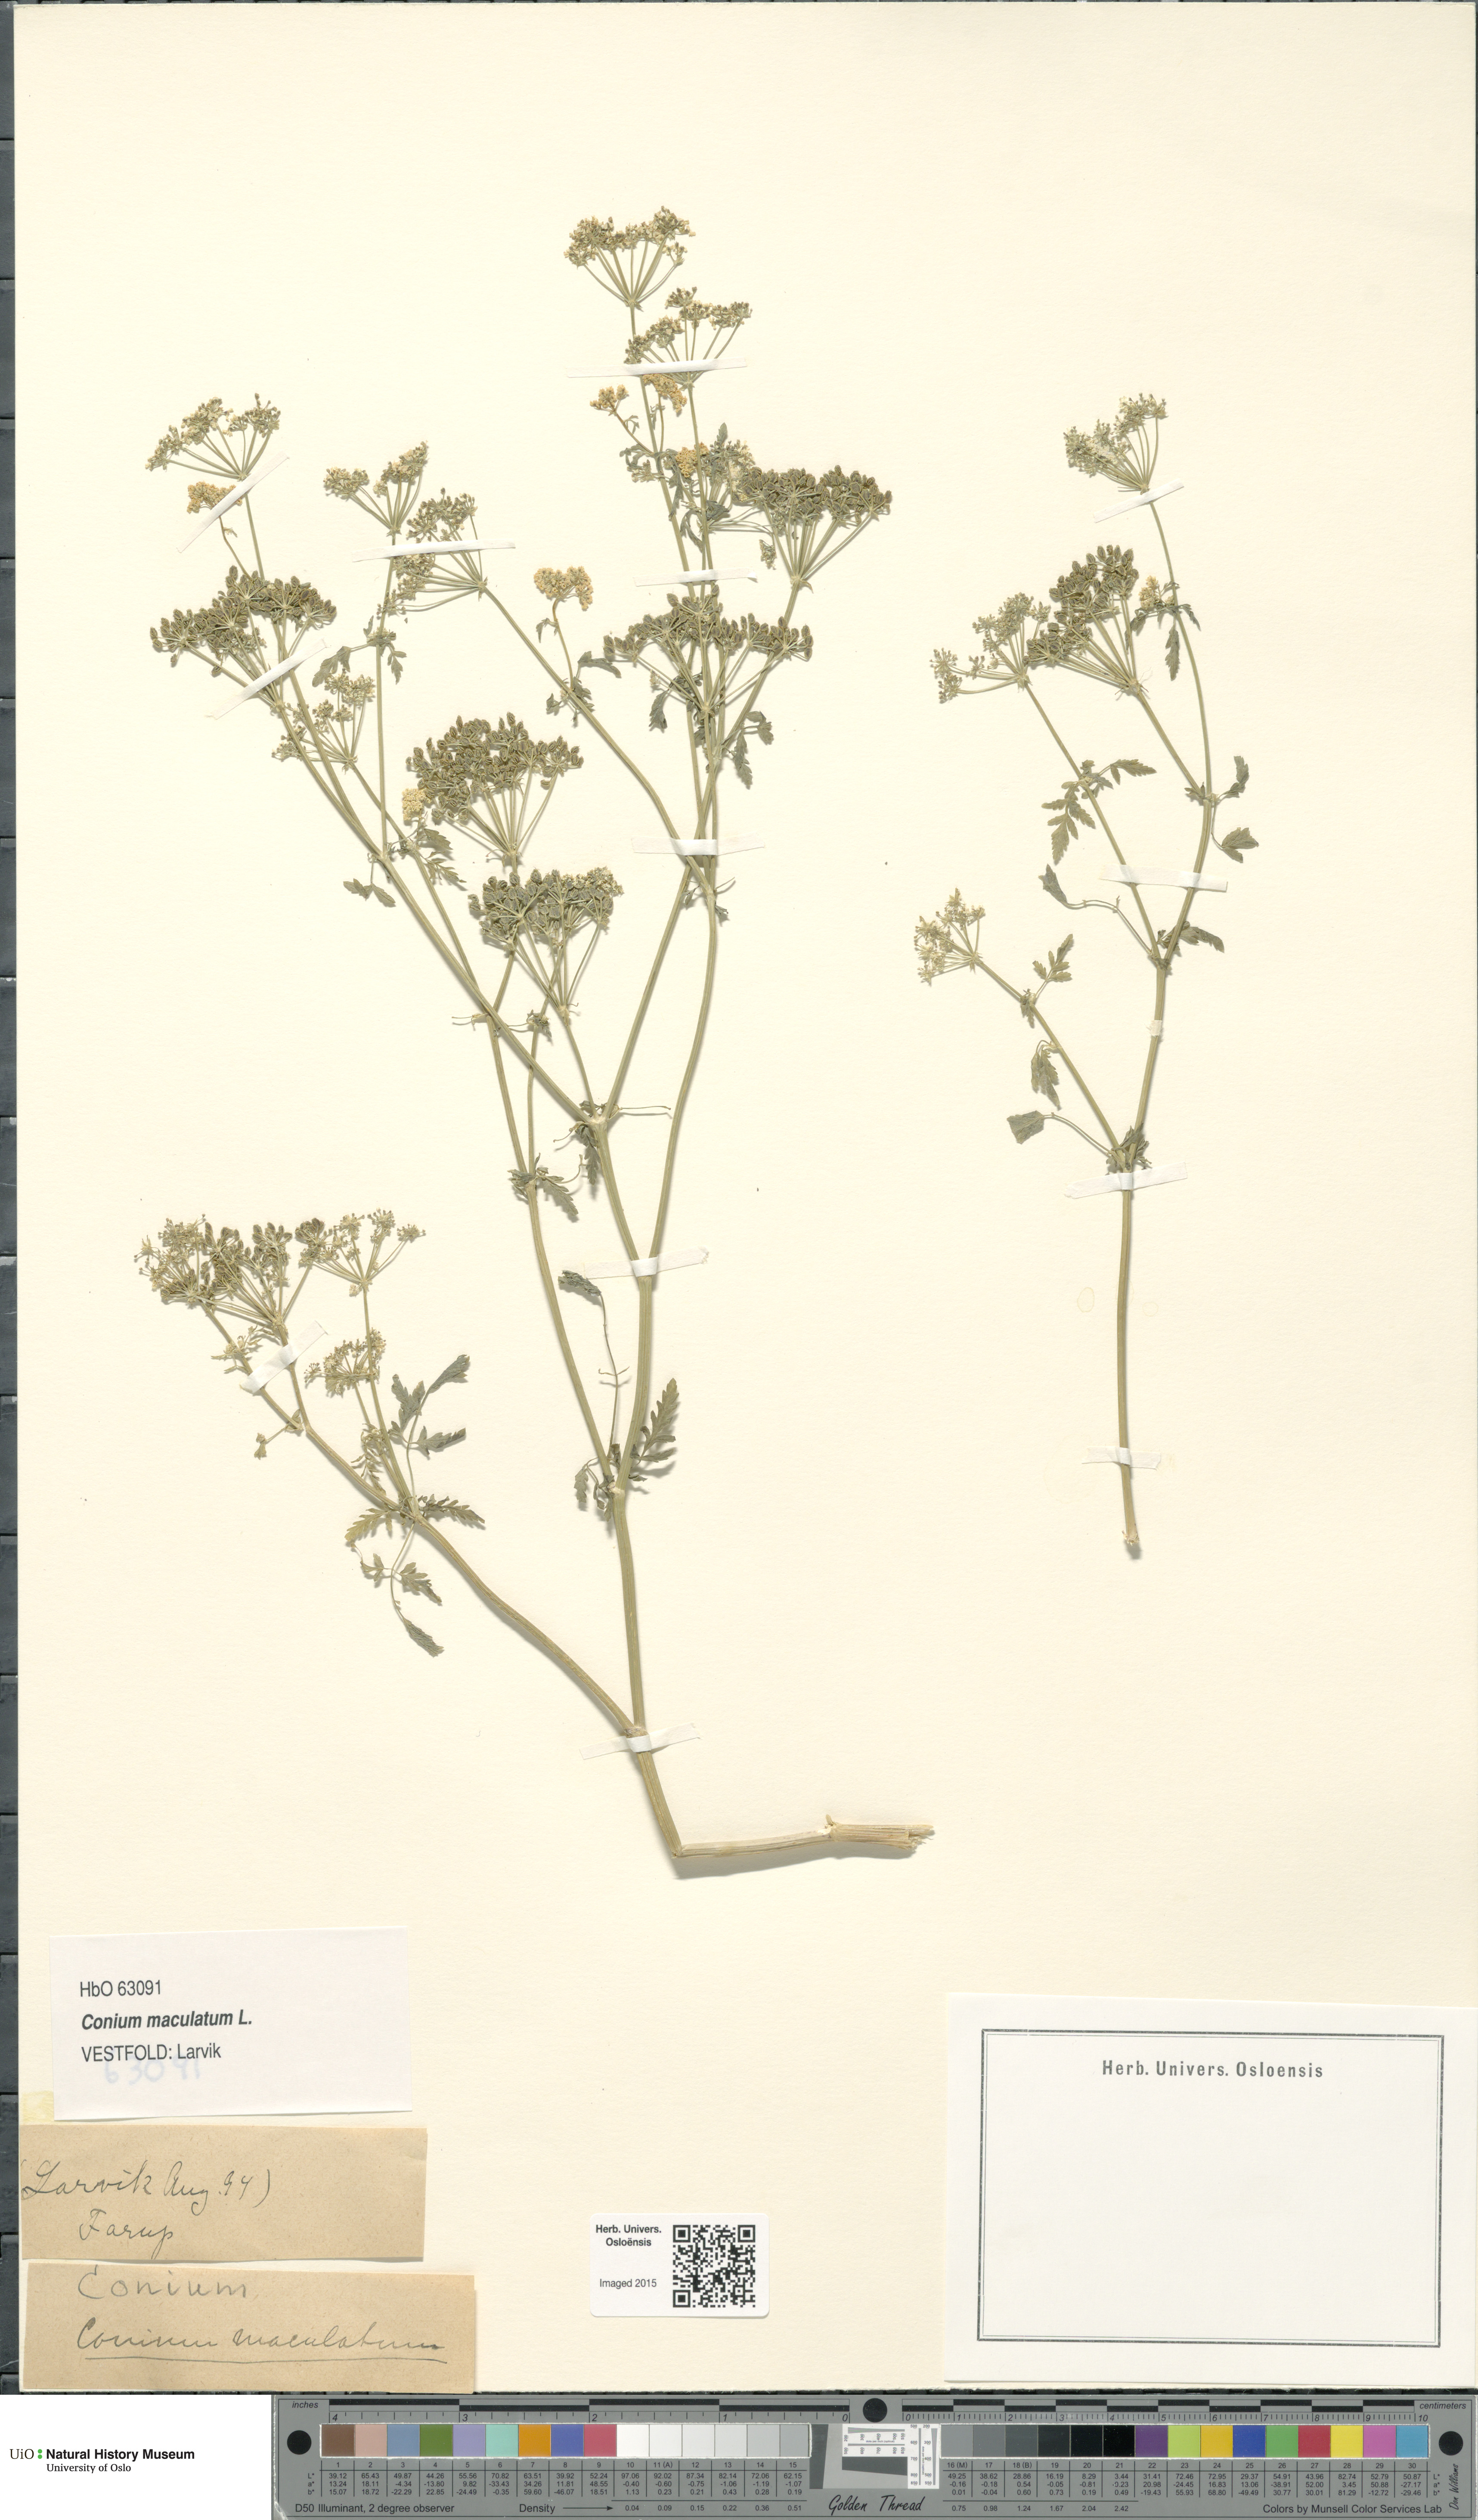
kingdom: Plantae
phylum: Tracheophyta
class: Magnoliopsida
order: Apiales
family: Apiaceae
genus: Conium
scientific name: Conium maculatum
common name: Hemlock
